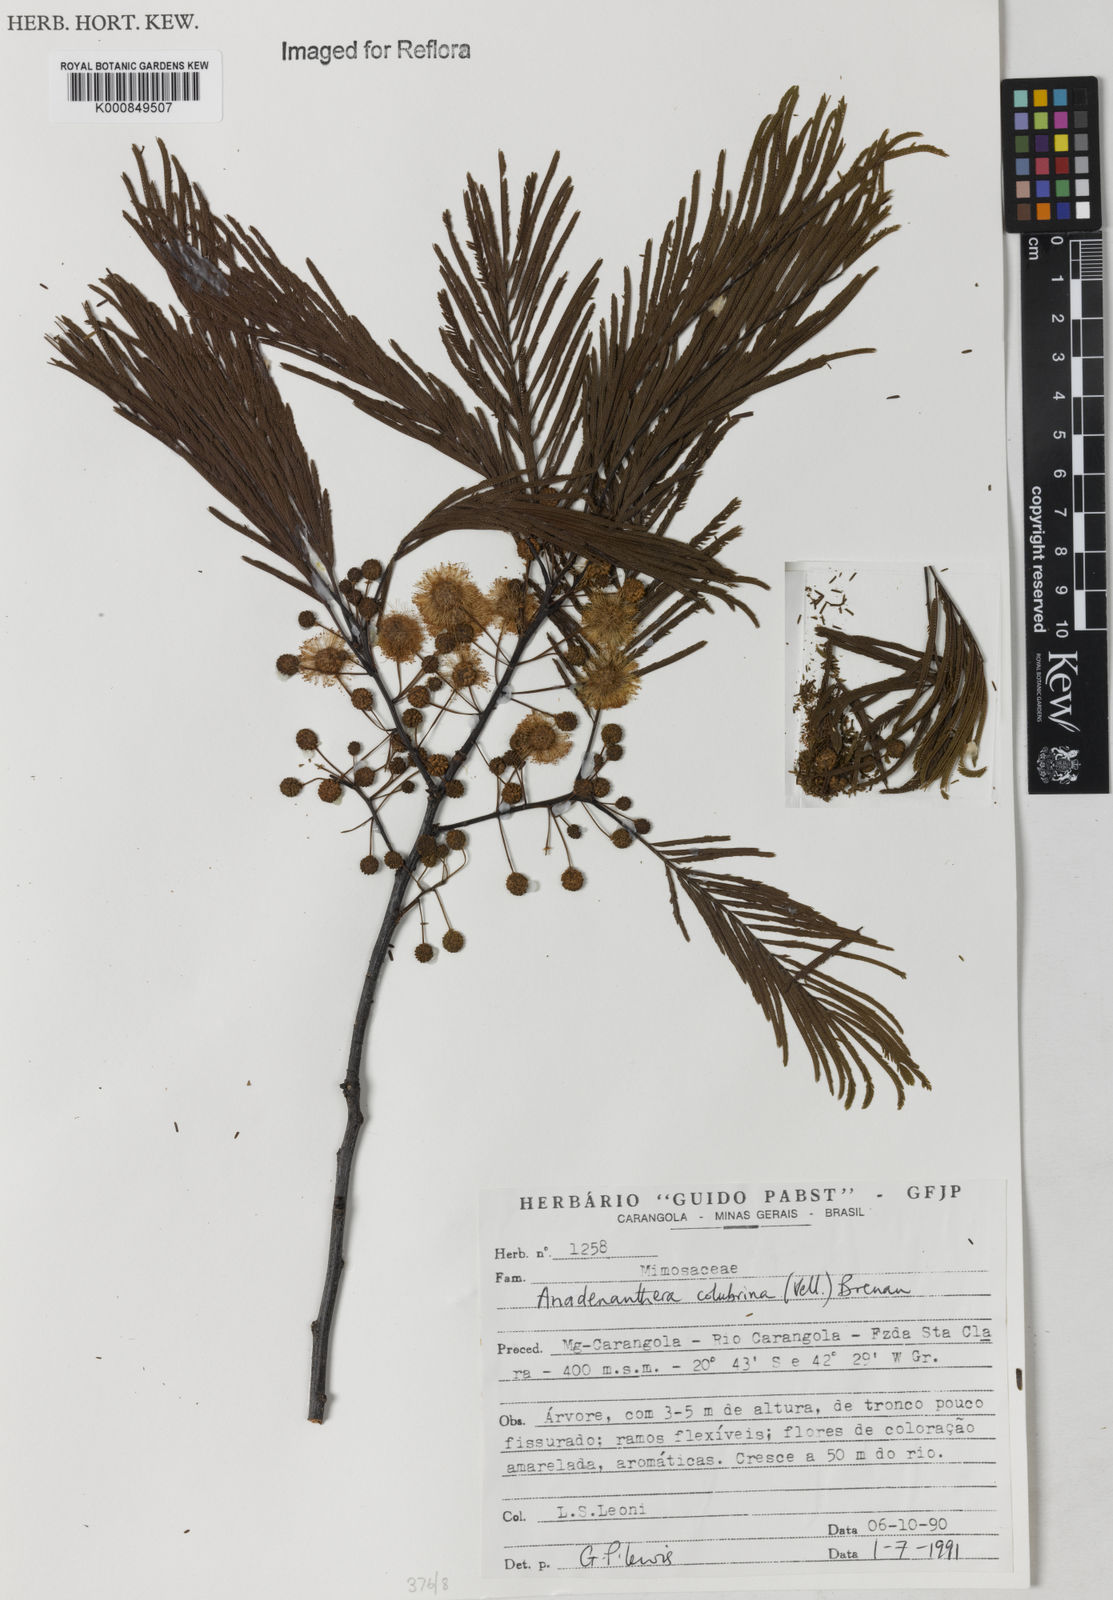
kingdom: Plantae
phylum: Tracheophyta
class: Magnoliopsida
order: Fabales
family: Fabaceae
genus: Anadenanthera
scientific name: Anadenanthera colubrina
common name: Curupay
